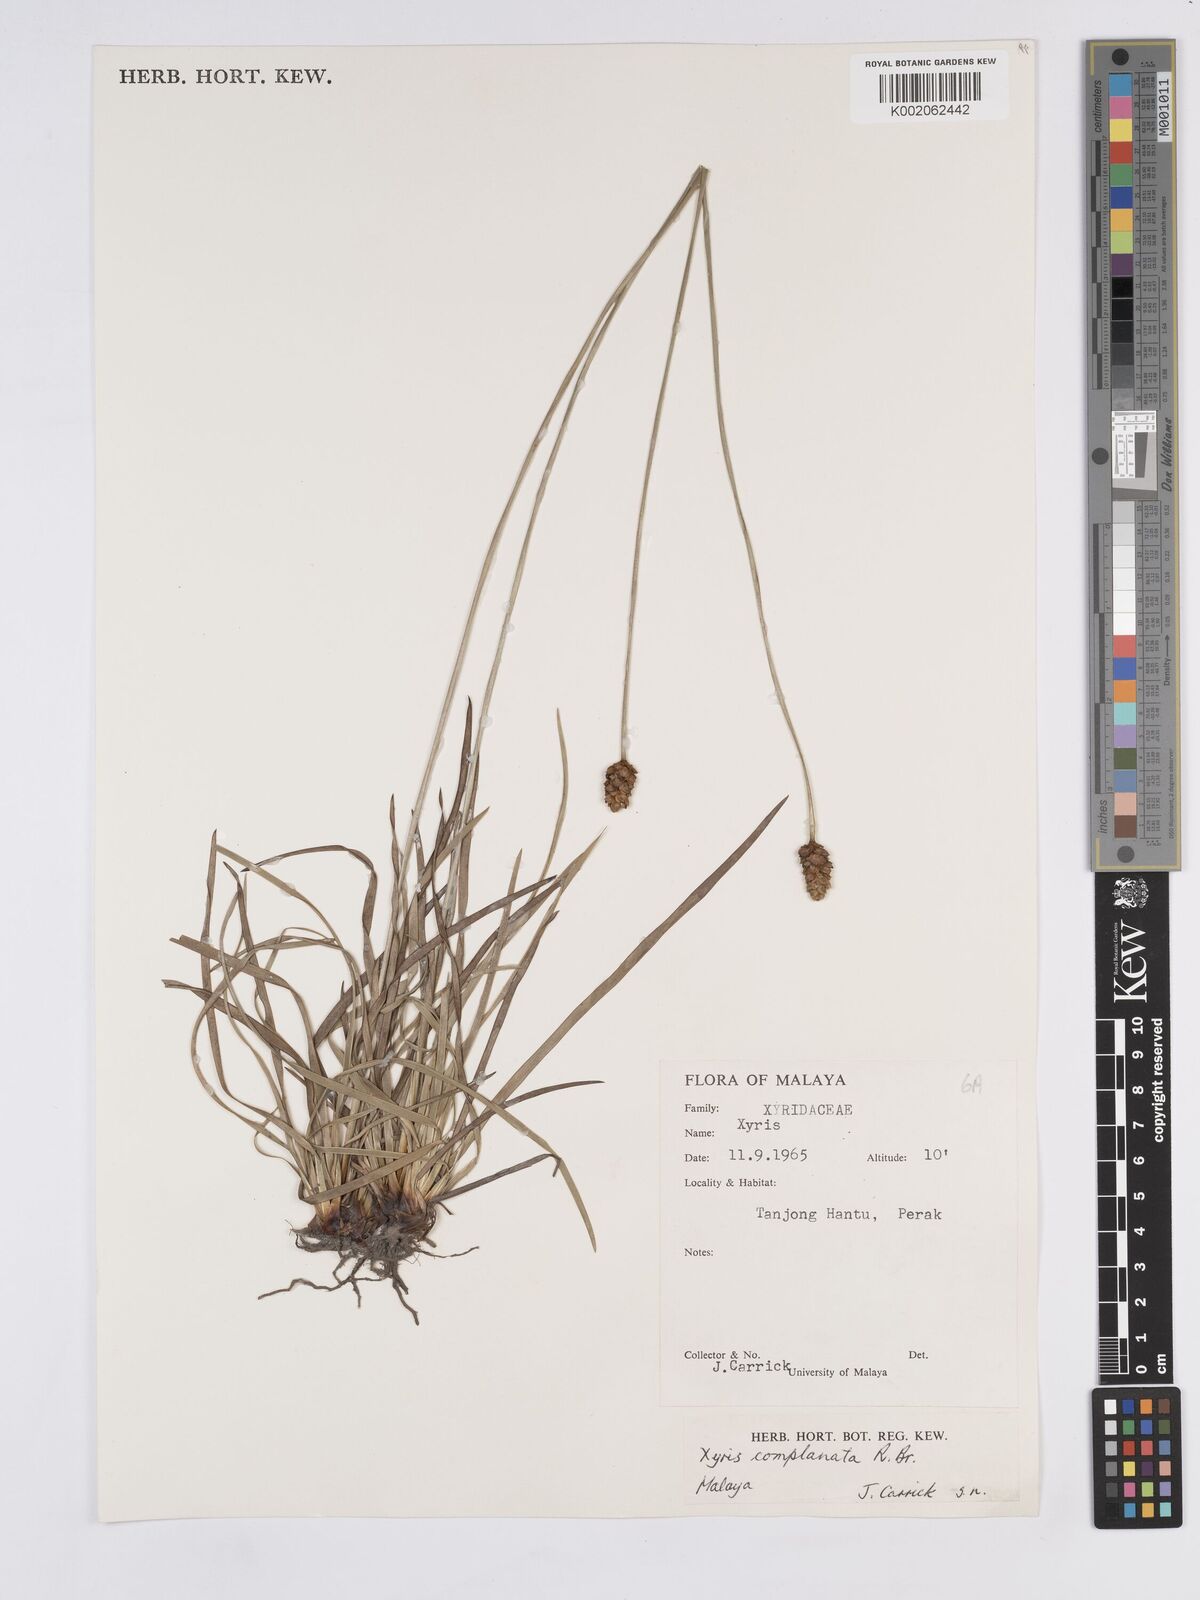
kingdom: Plantae
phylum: Tracheophyta
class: Liliopsida
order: Poales
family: Xyridaceae
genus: Xyris
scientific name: Xyris complanata
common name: Hawai'i yelloweyed grass
